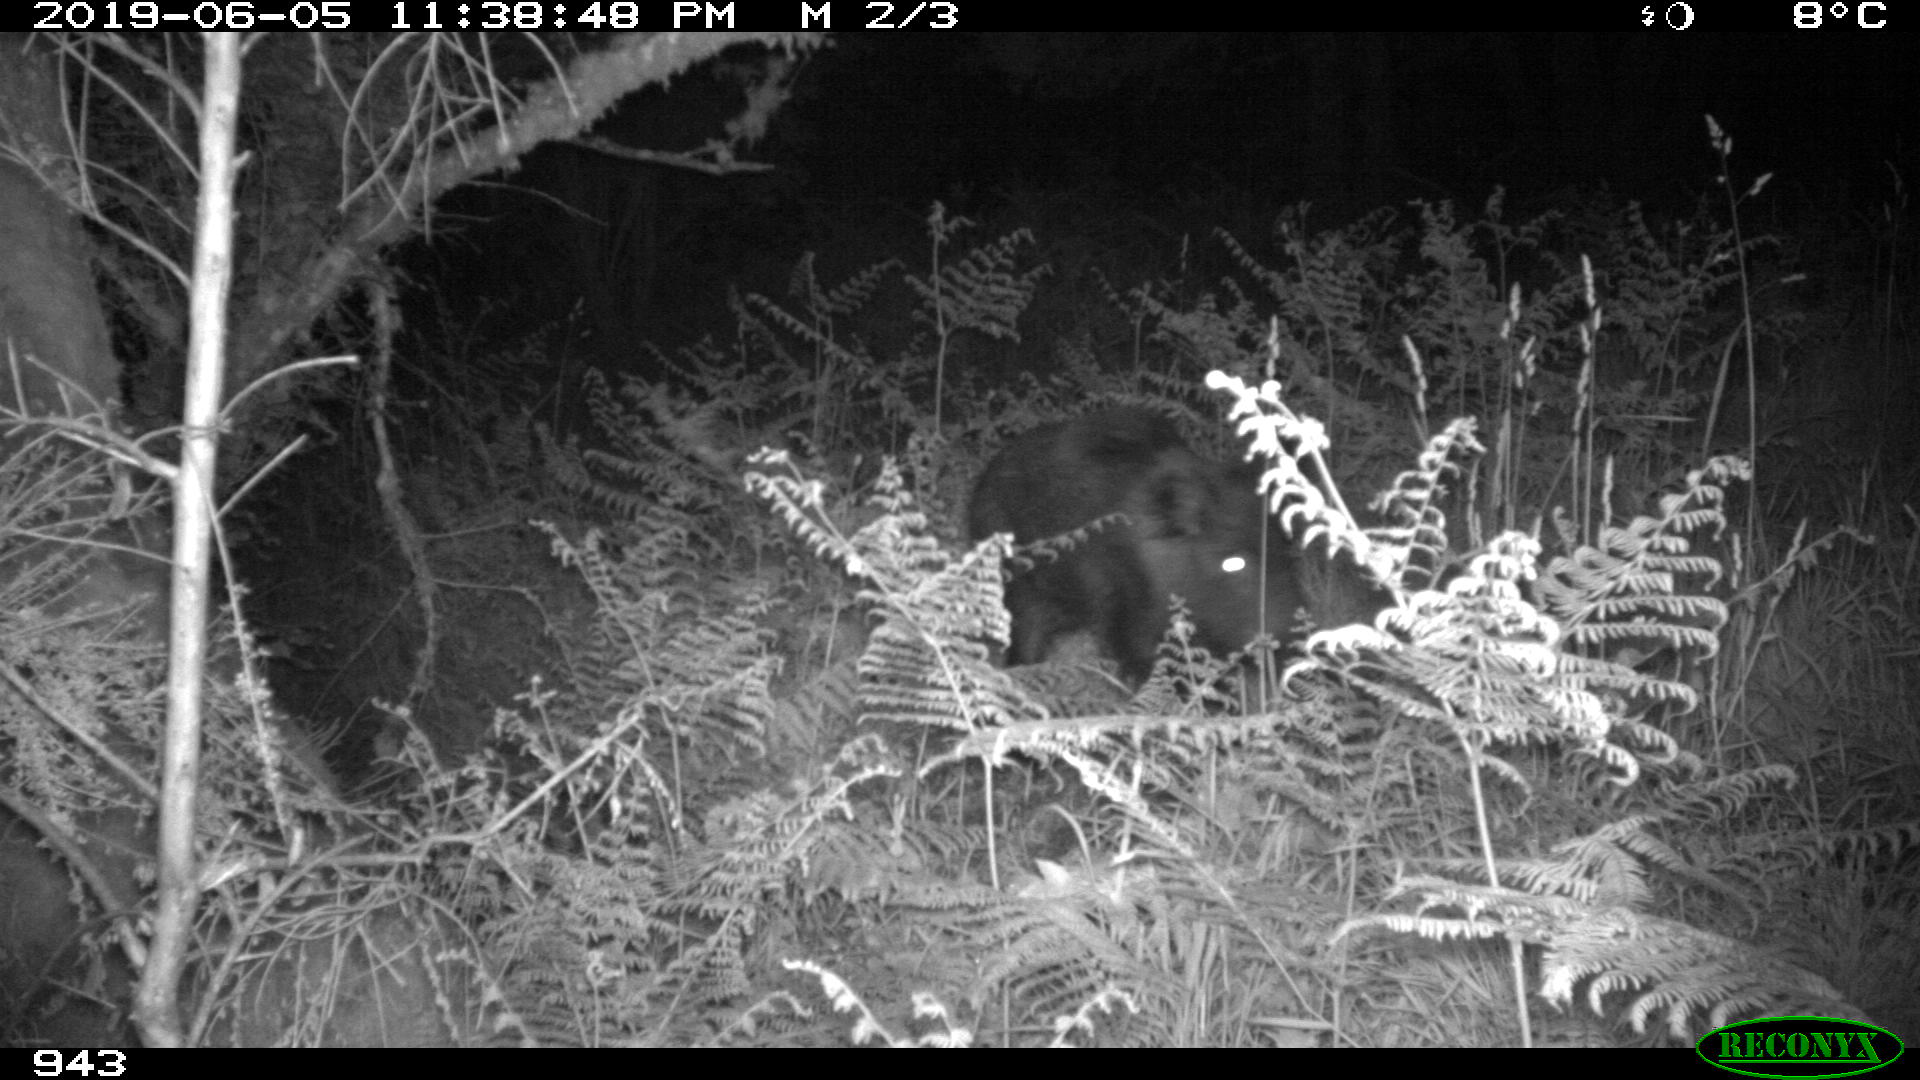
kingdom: Animalia
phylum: Chordata
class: Mammalia
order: Artiodactyla
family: Suidae
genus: Sus
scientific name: Sus scrofa
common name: Wild boar
